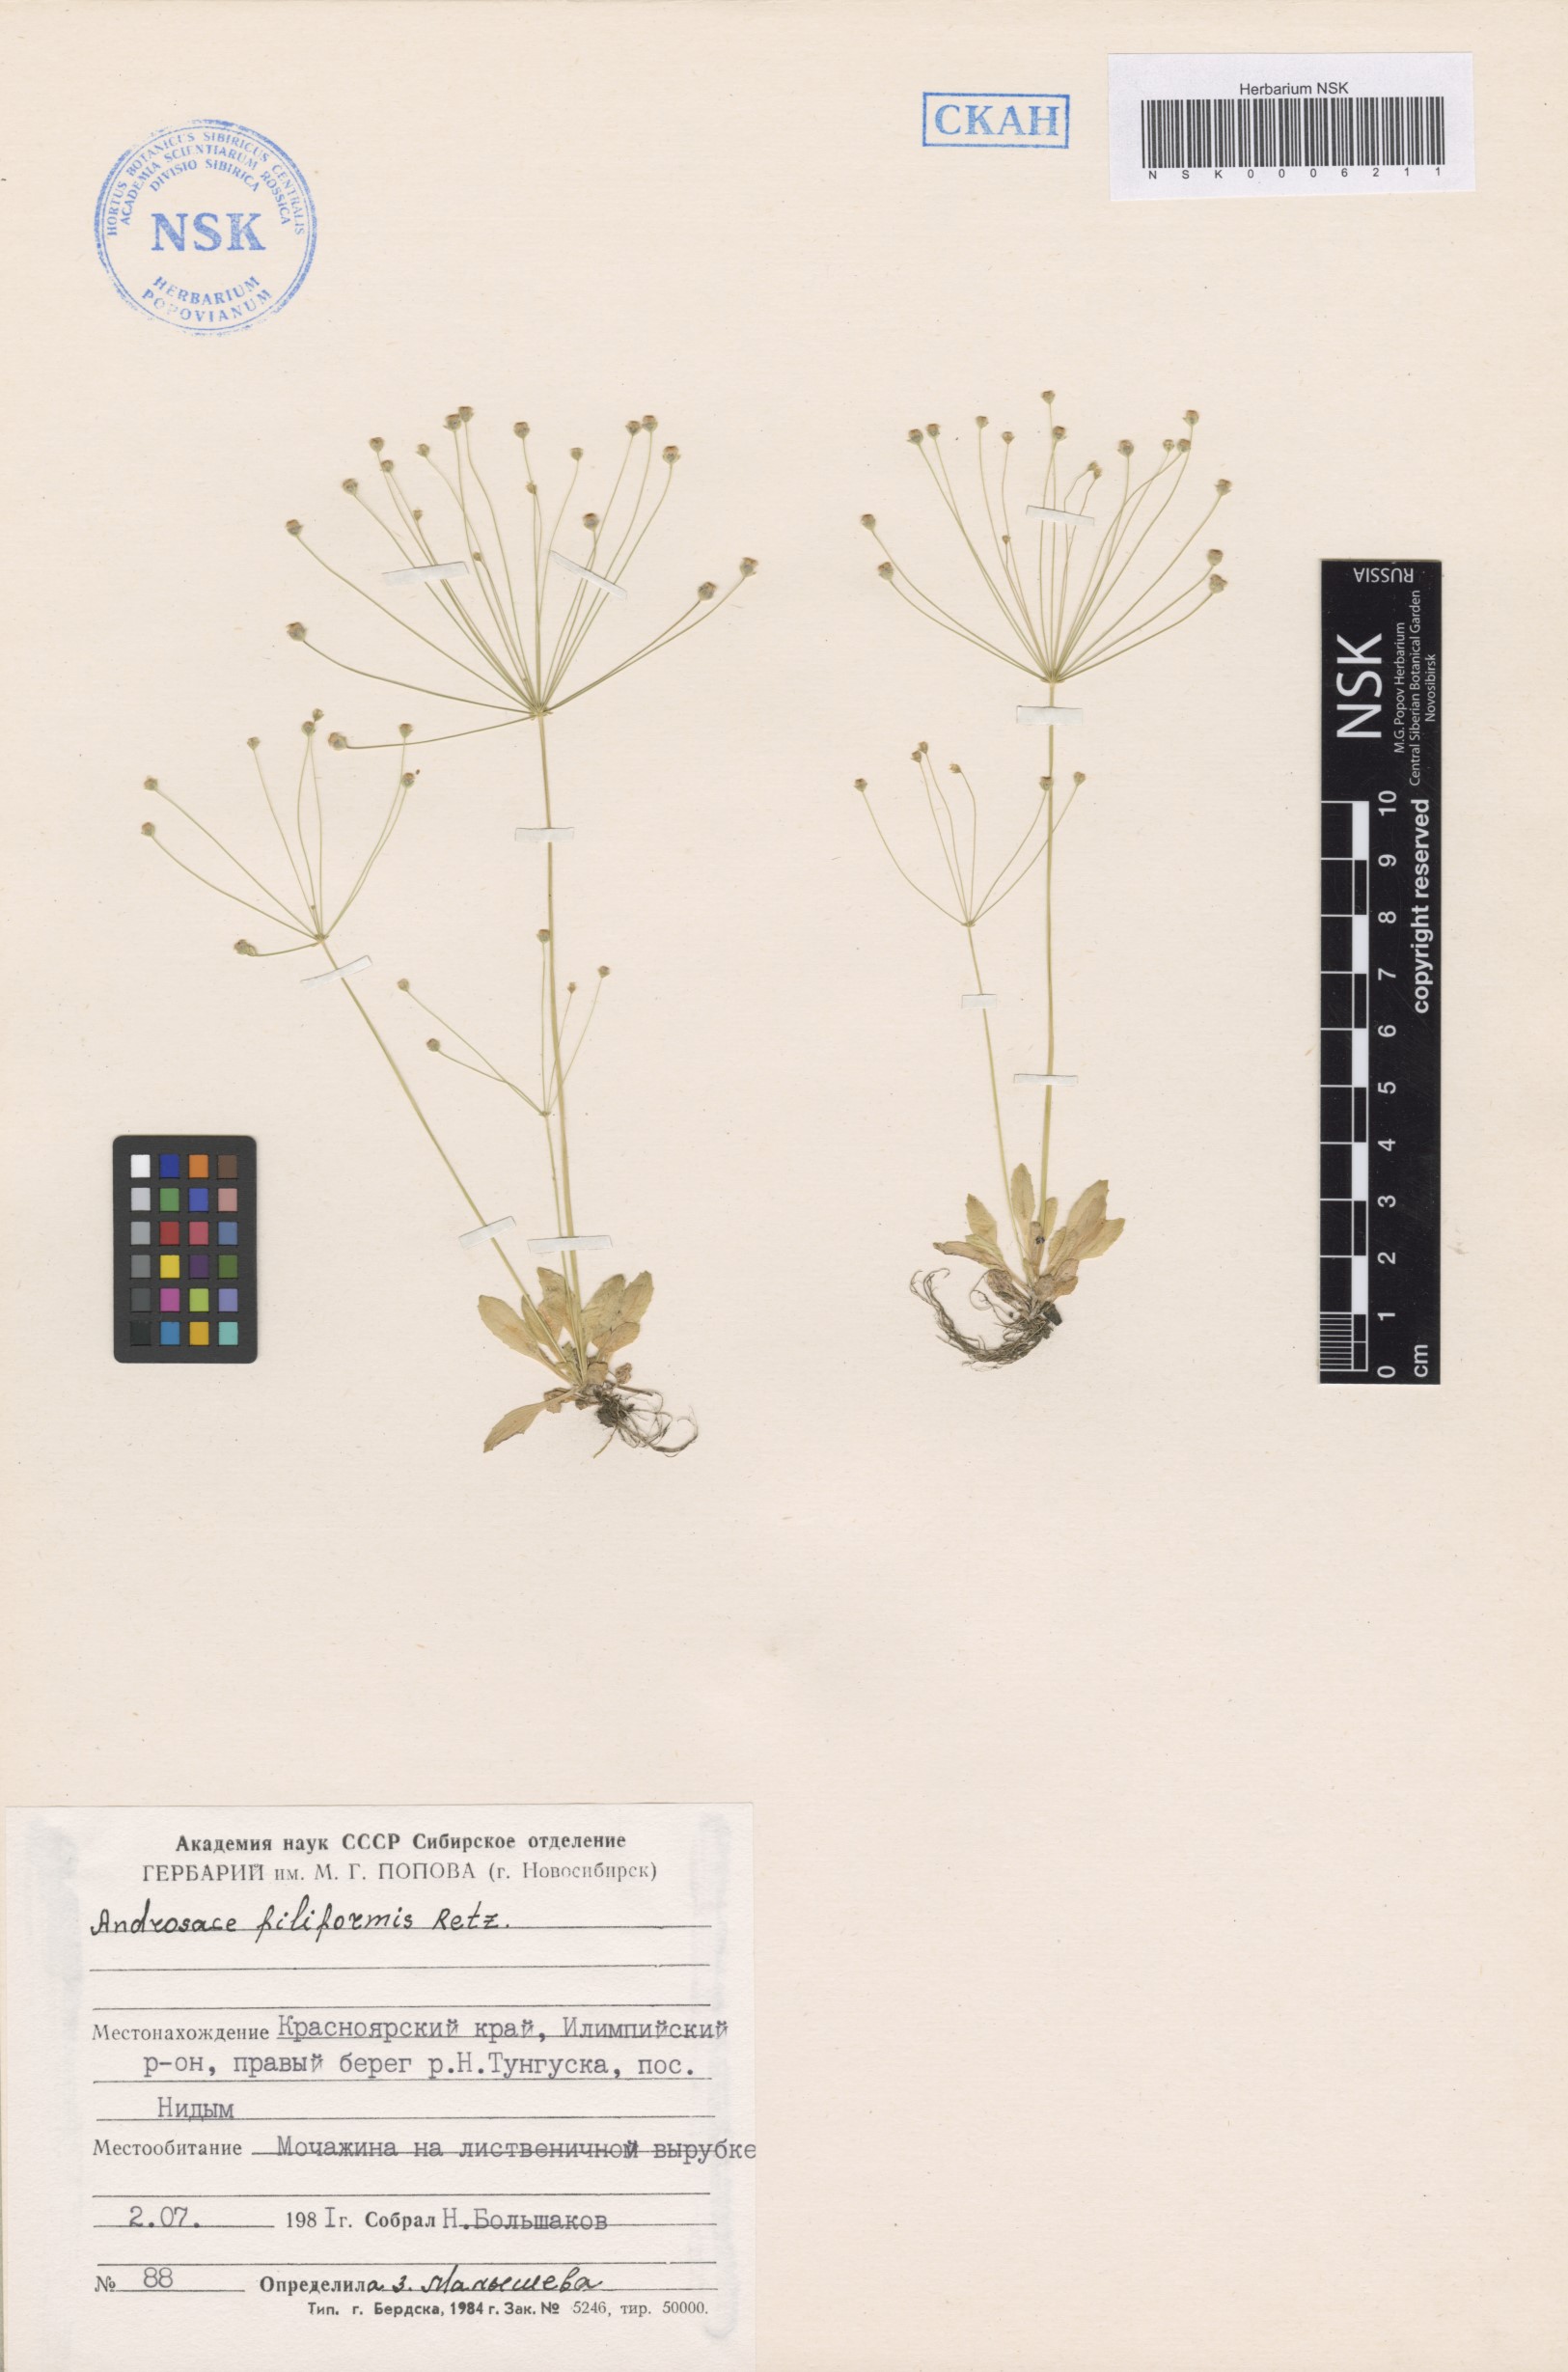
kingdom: Plantae
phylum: Tracheophyta
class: Magnoliopsida
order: Ericales
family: Primulaceae
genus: Androsace
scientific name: Androsace filiformis
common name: Filiform rock jasmine
